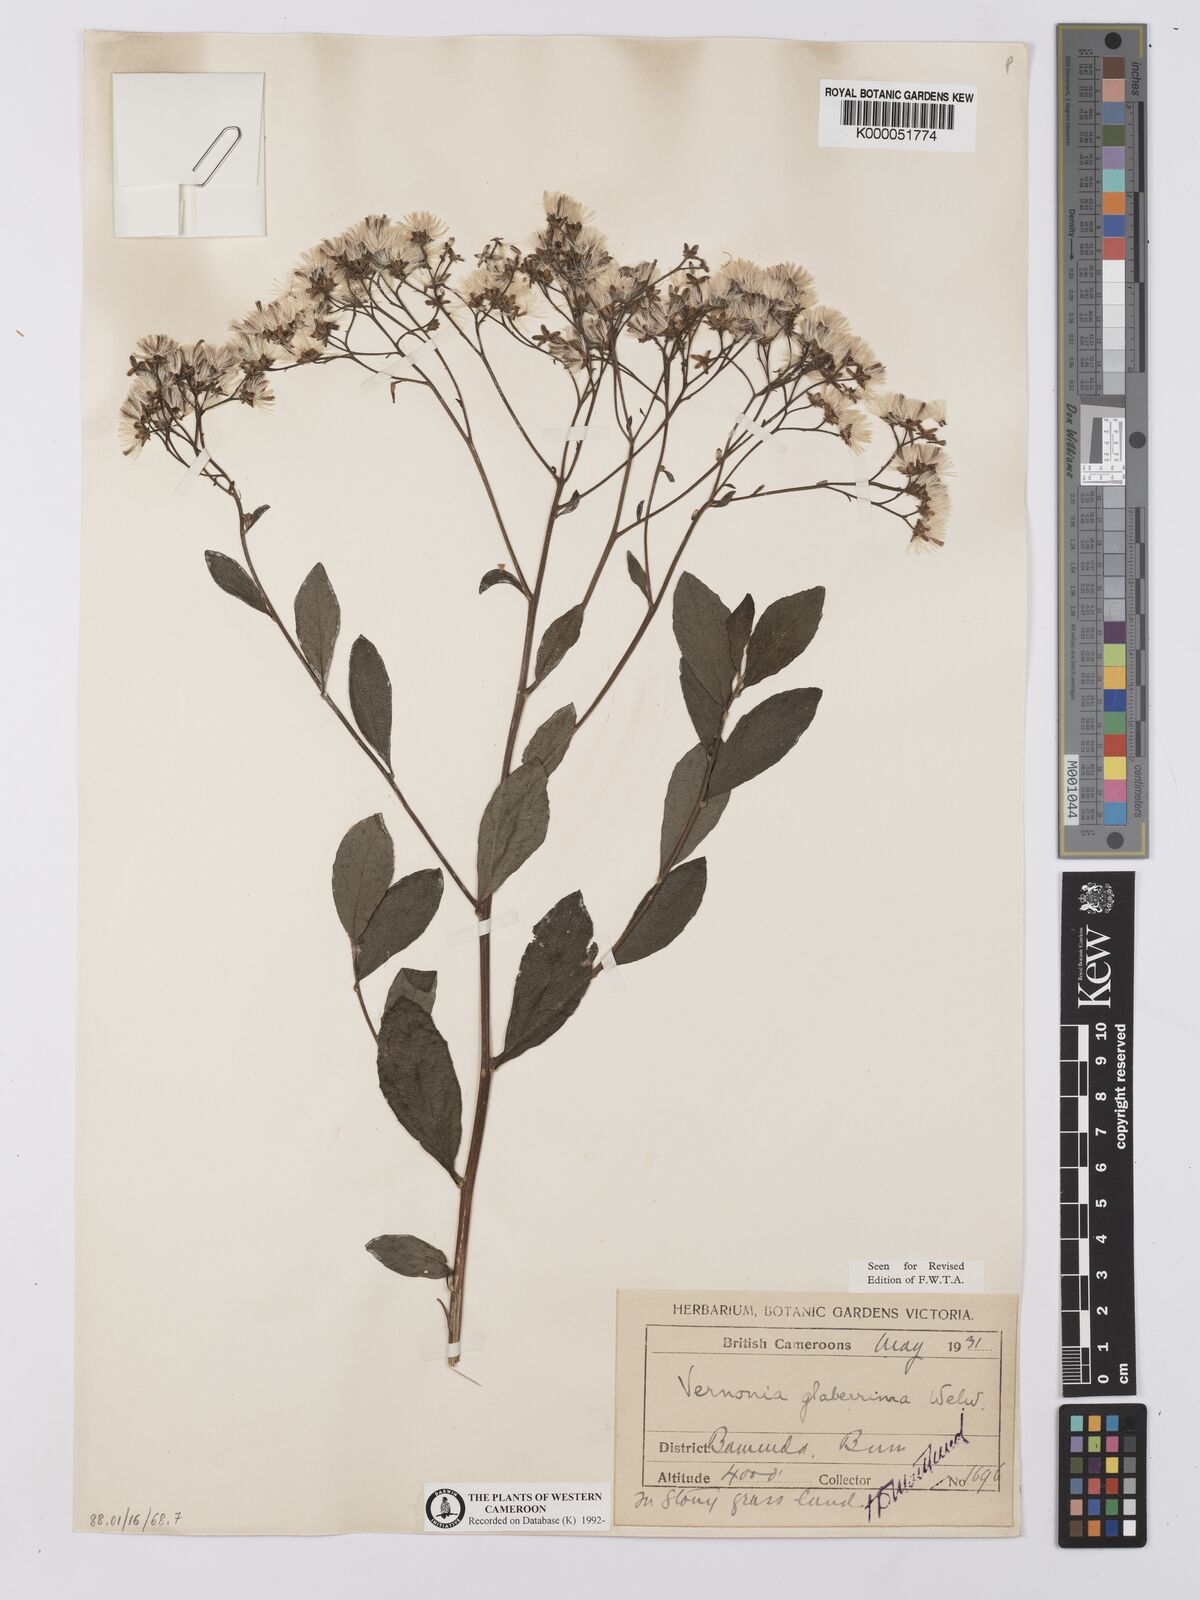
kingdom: Plantae
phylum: Tracheophyta
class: Magnoliopsida
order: Asterales
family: Asteraceae
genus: Vernonia
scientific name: Vernonia
